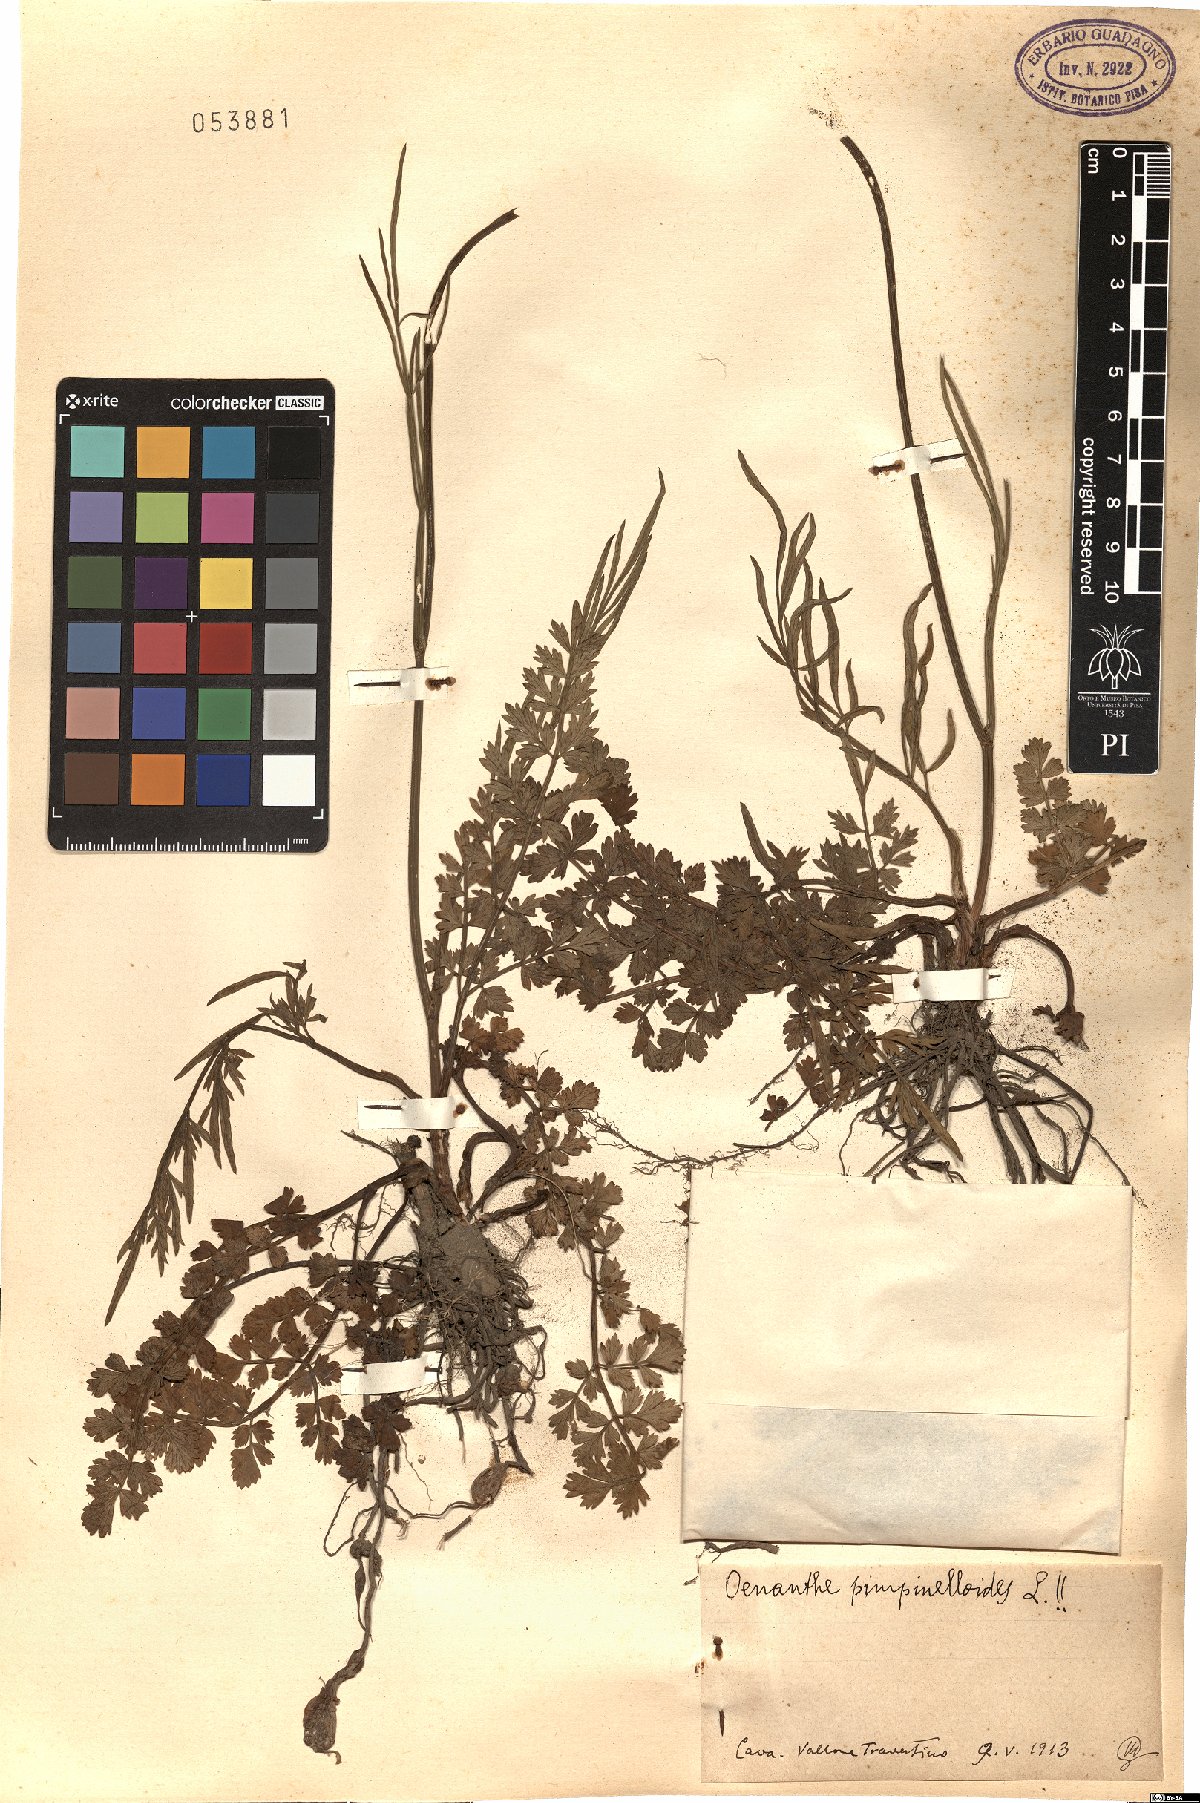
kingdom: Plantae
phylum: Tracheophyta
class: Magnoliopsida
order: Apiales
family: Apiaceae
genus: Oenanthe
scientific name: Oenanthe pimpinelloides
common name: Corky-fruited water-dropwort
